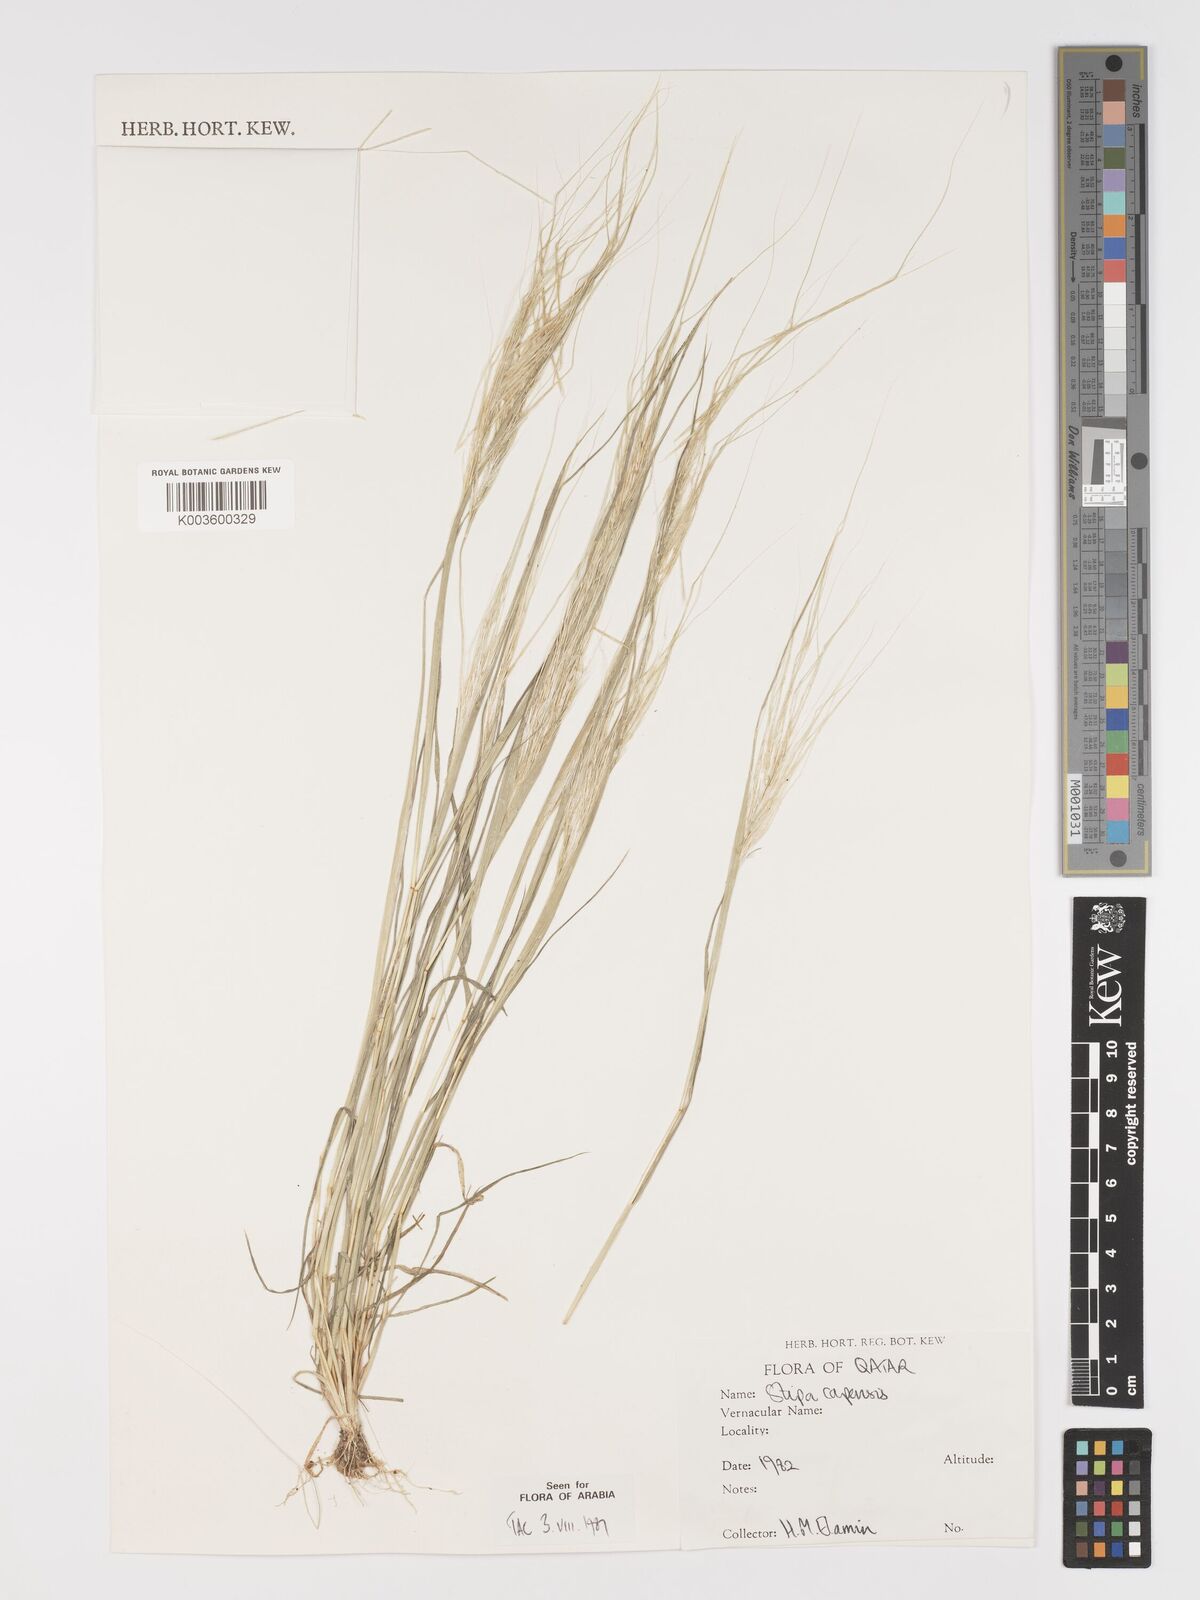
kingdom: Plantae
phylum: Tracheophyta
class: Liliopsida
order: Poales
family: Poaceae
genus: Stipellula
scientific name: Stipellula capensis
